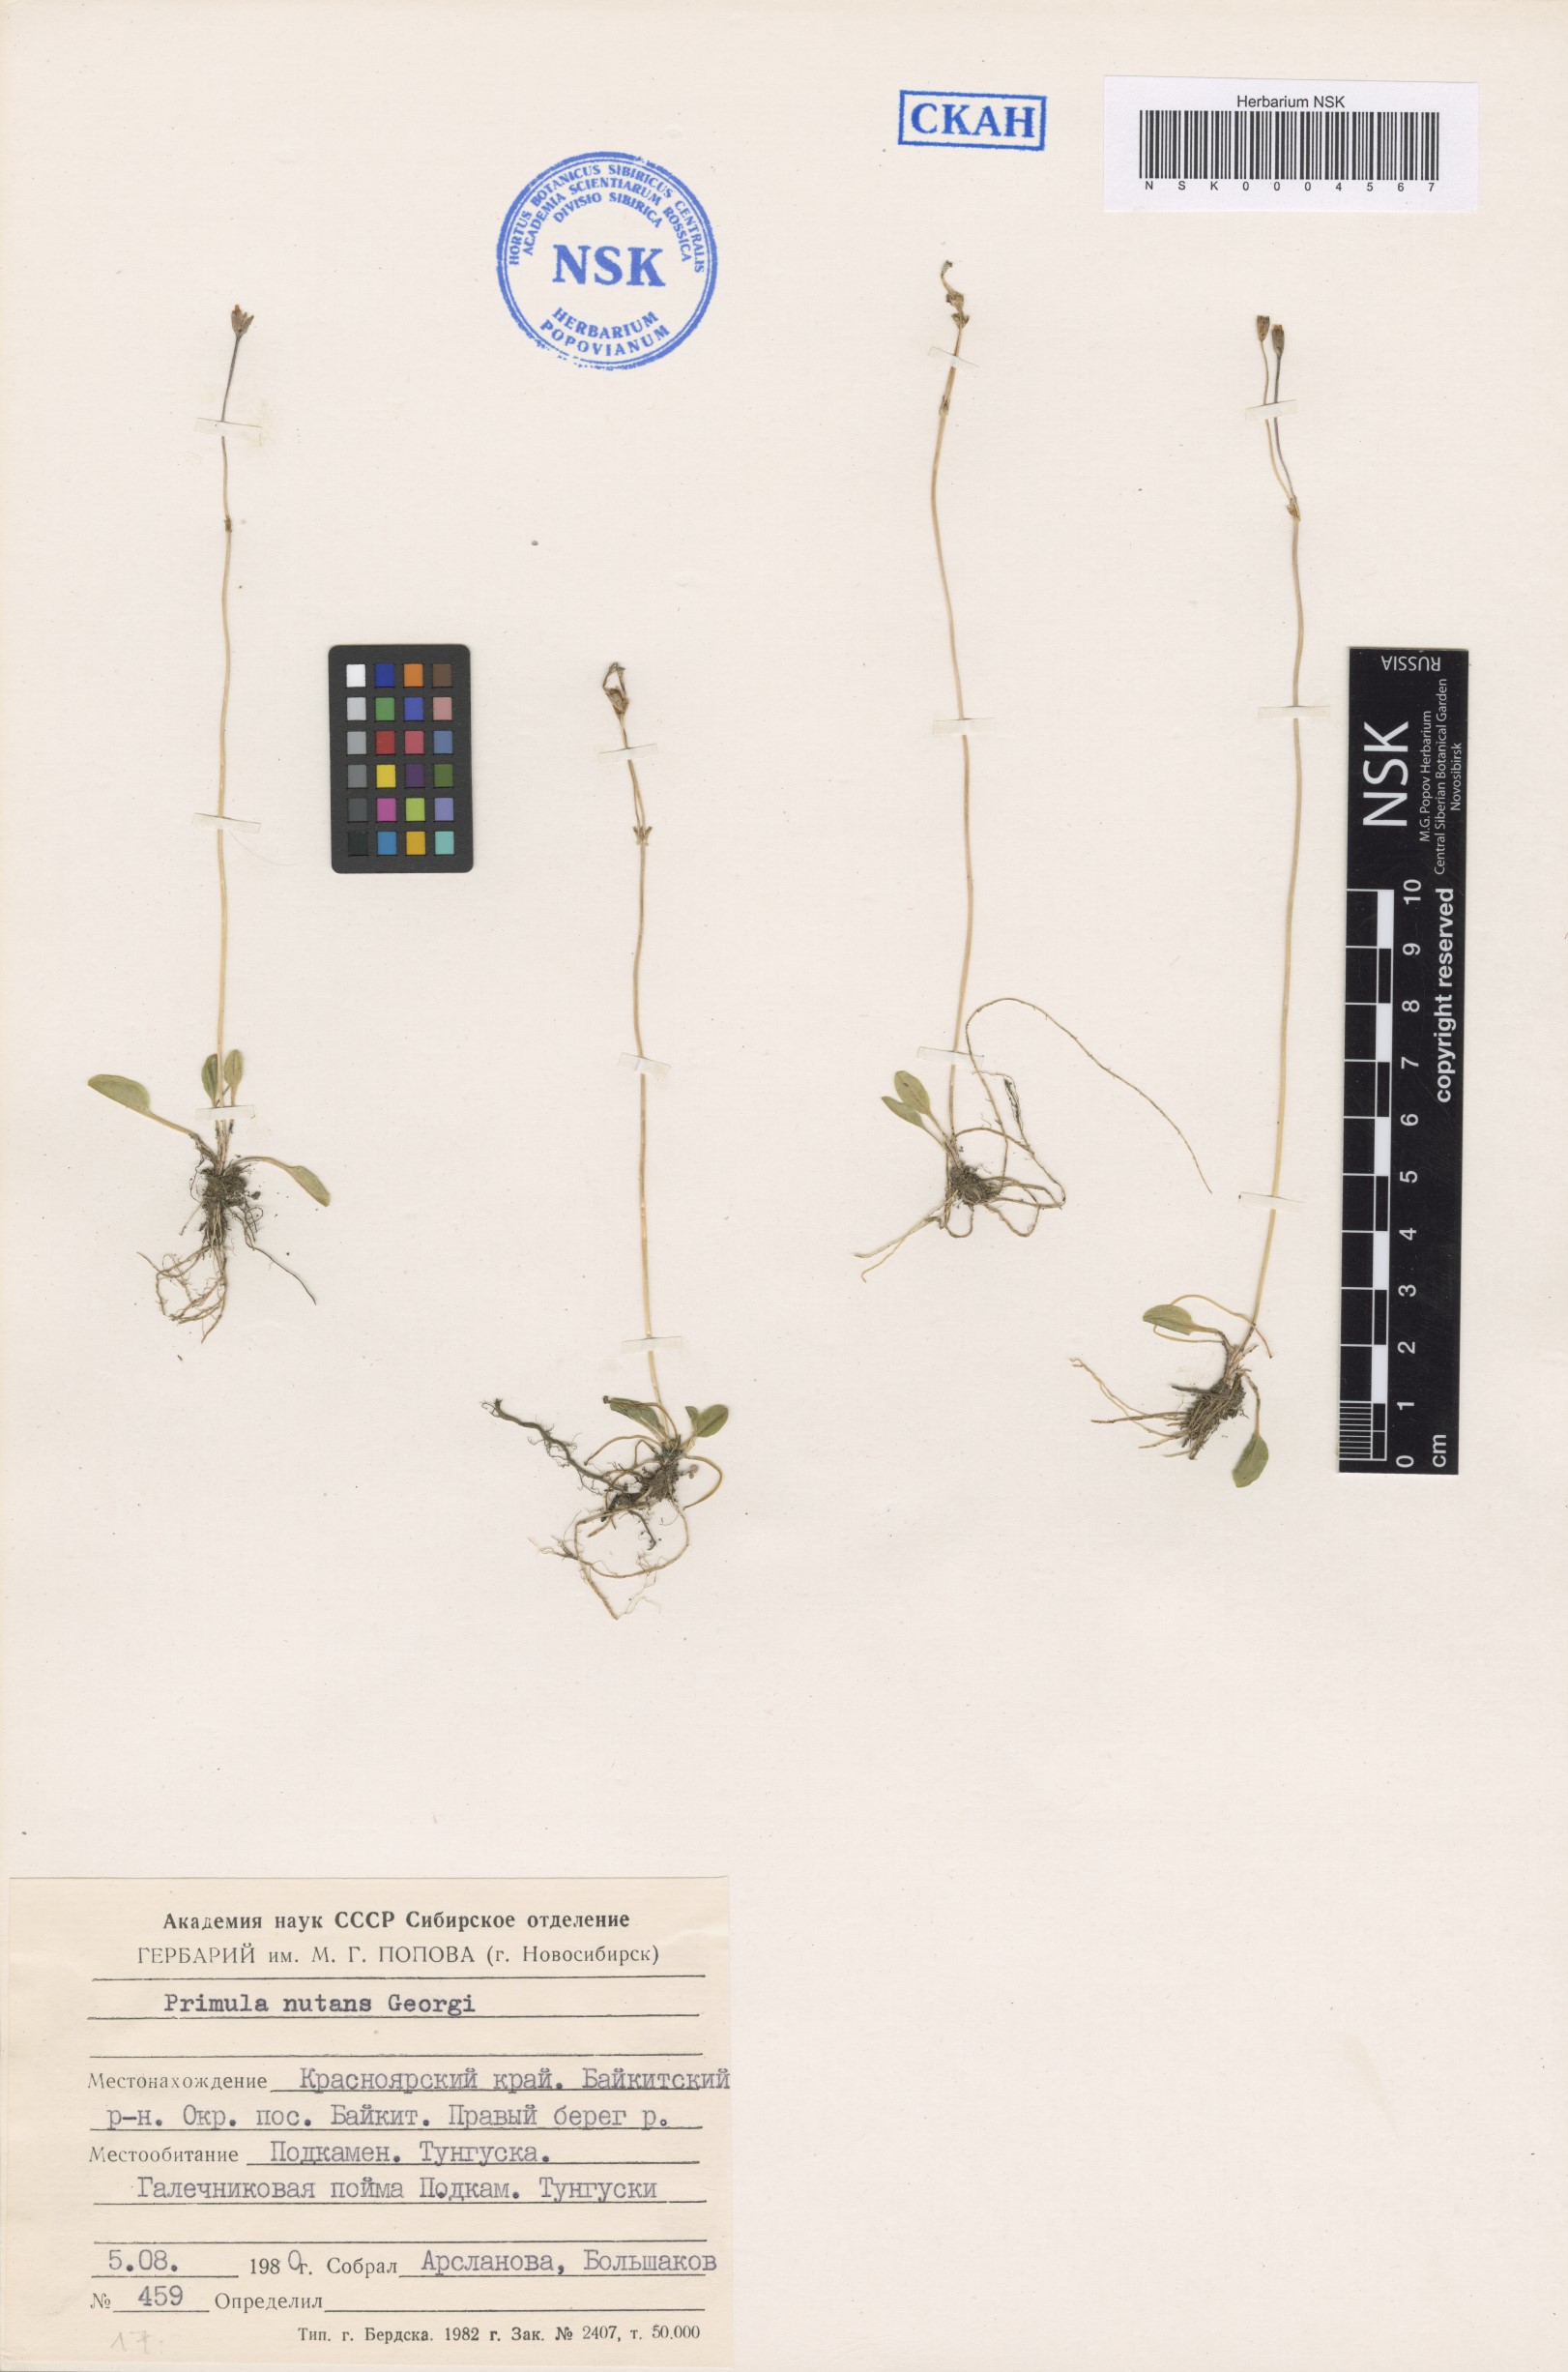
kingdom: Plantae
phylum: Tracheophyta
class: Magnoliopsida
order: Ericales
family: Primulaceae
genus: Primula
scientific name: Primula nutans
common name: Siberian primrose
